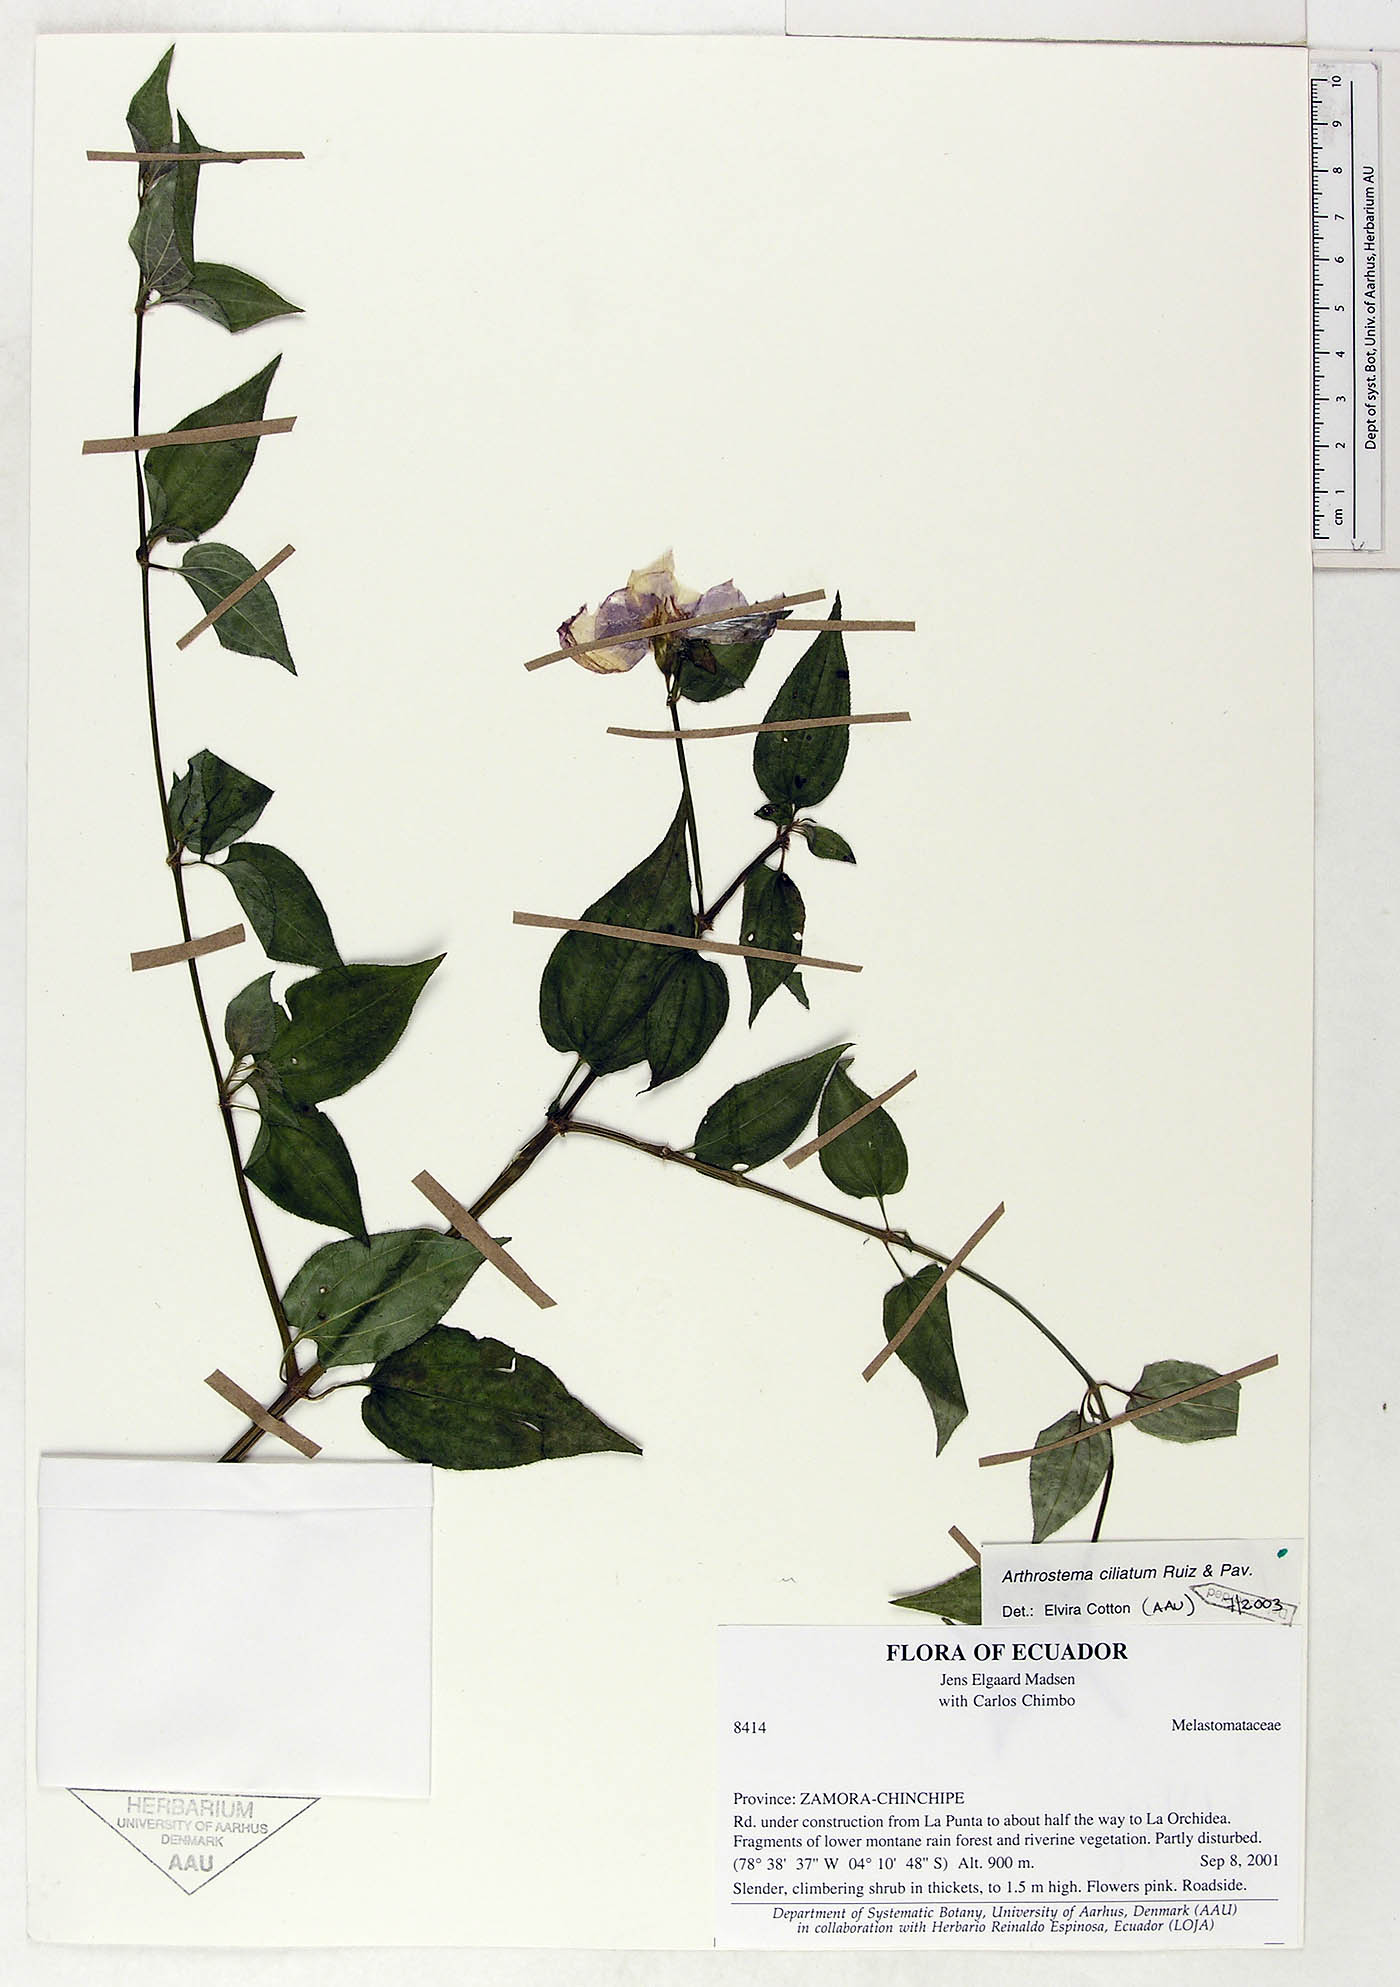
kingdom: Plantae
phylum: Tracheophyta
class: Magnoliopsida
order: Myrtales
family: Melastomataceae
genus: Arthrostemma
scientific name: Arthrostemma ciliatum
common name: Everblooming eavender
